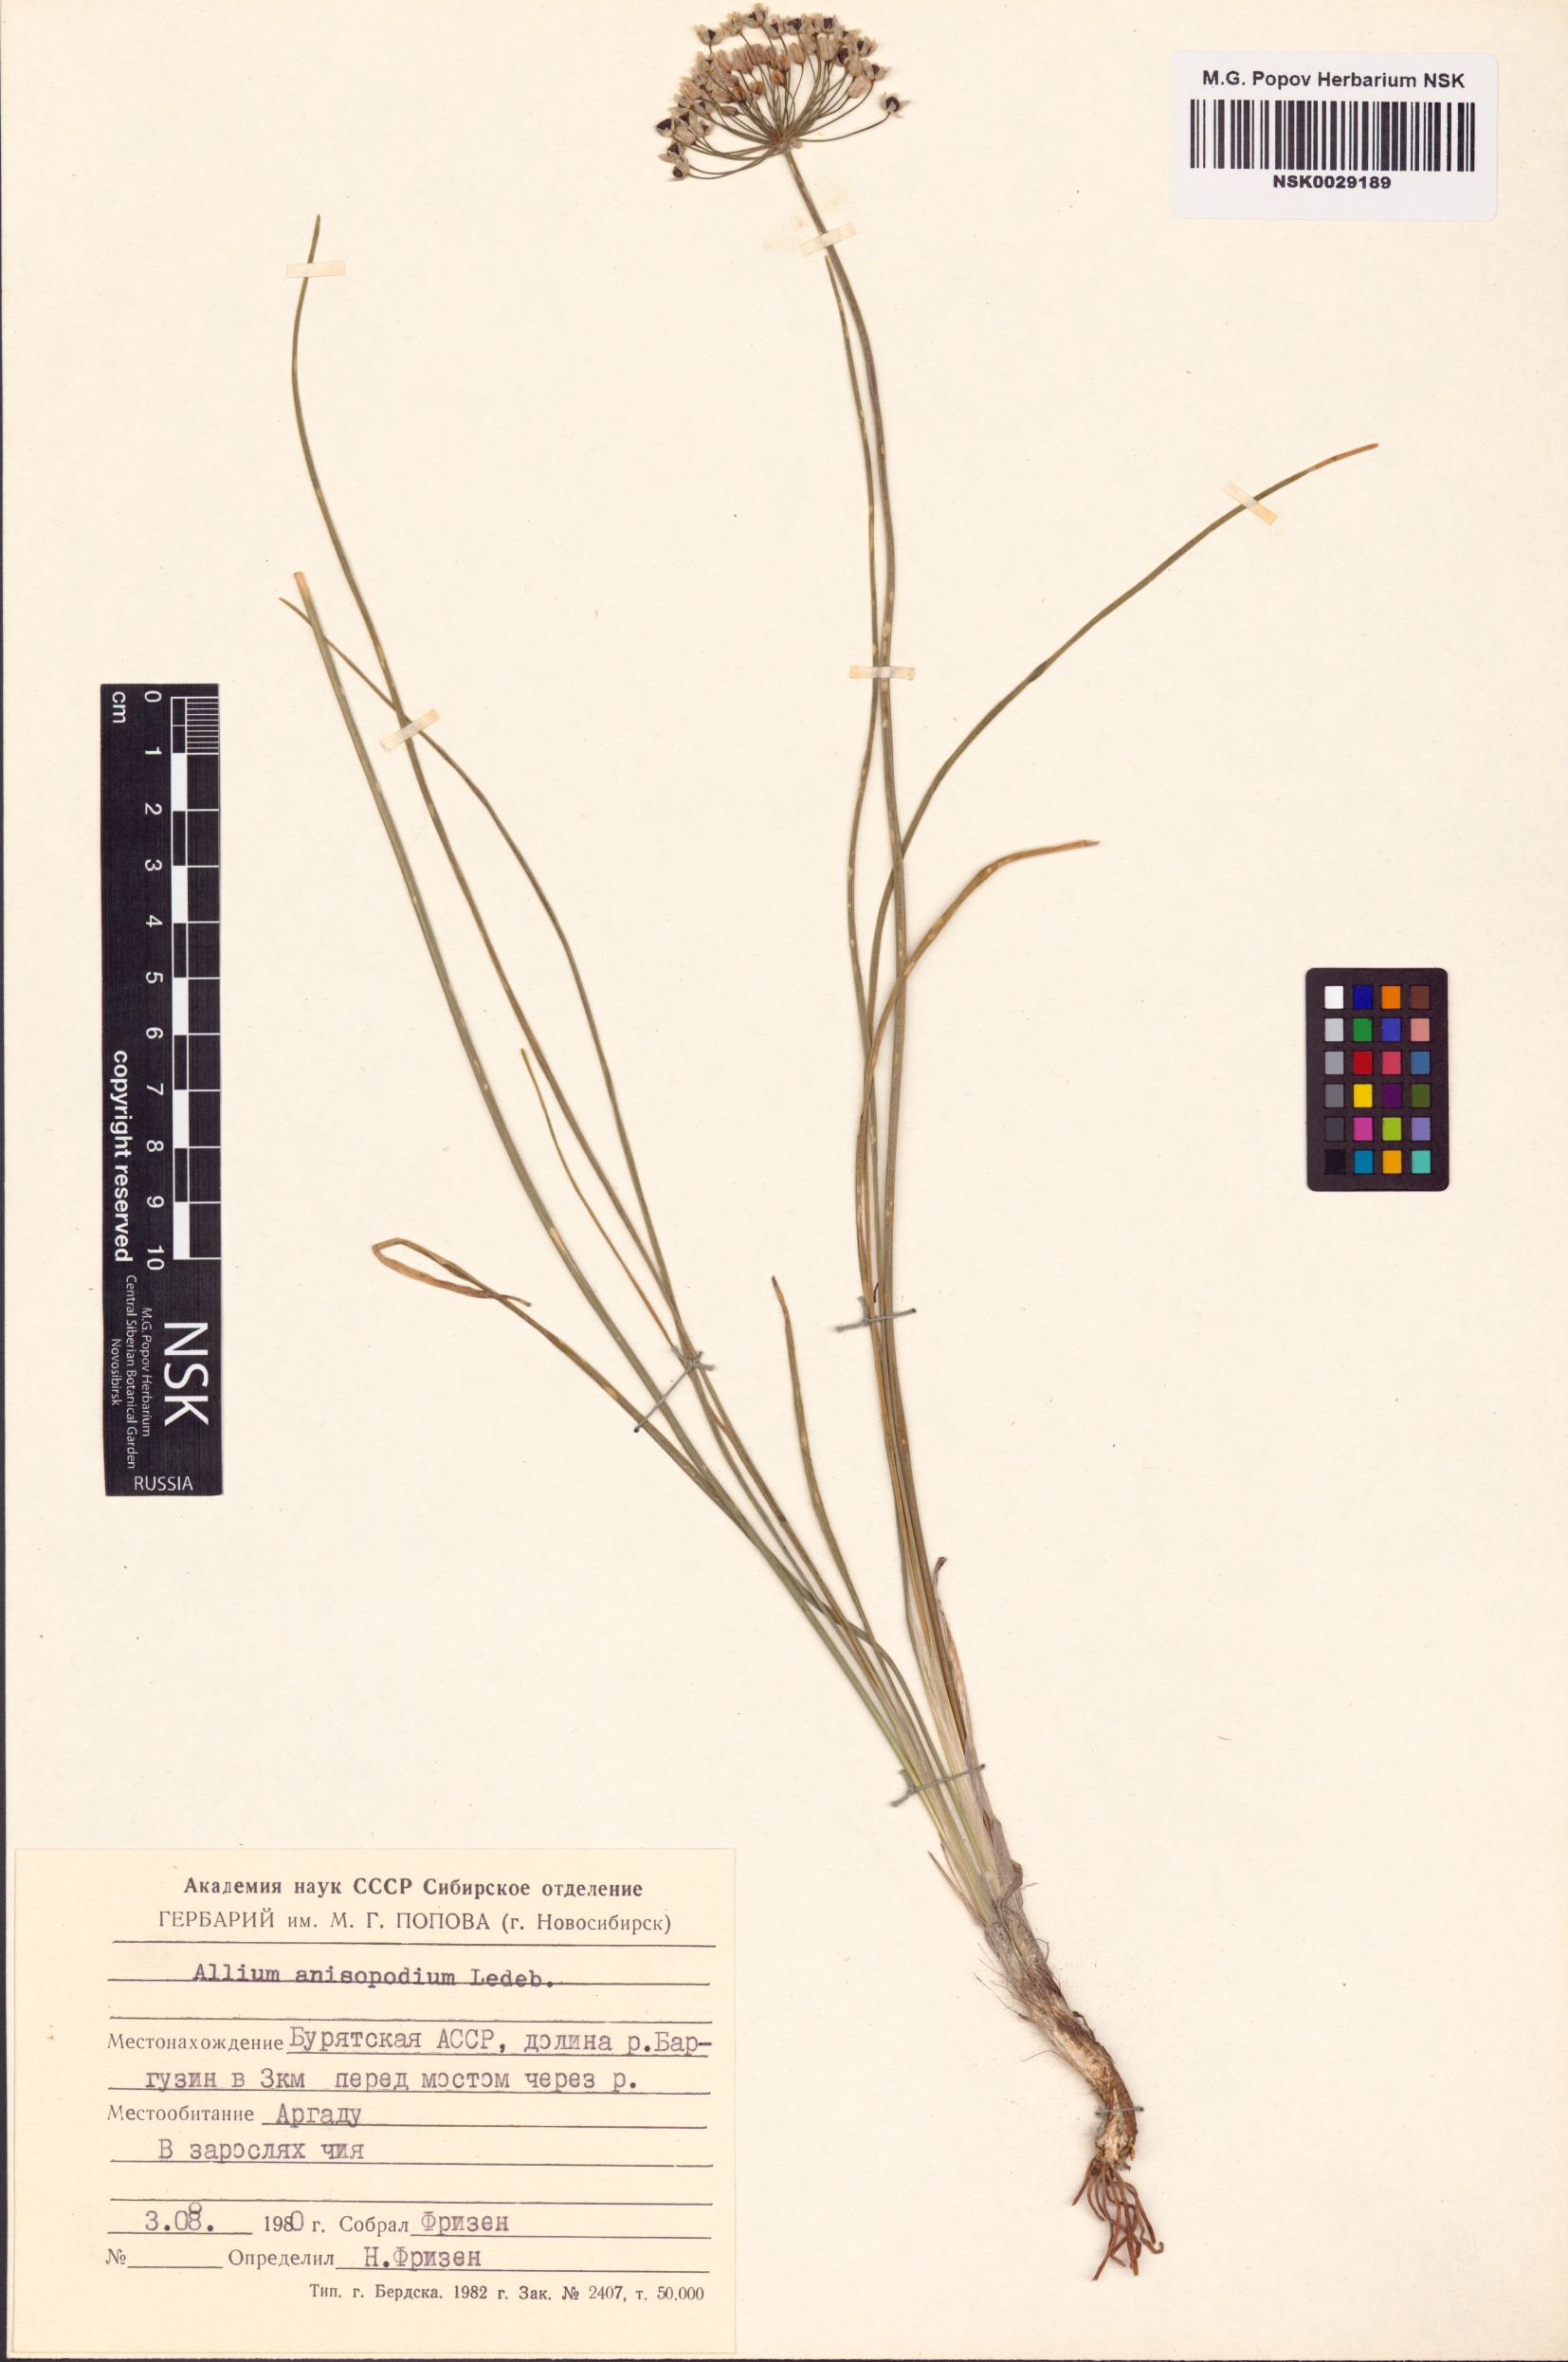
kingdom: Plantae
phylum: Tracheophyta
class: Liliopsida
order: Asparagales
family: Amaryllidaceae
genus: Allium
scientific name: Allium anisopodium
